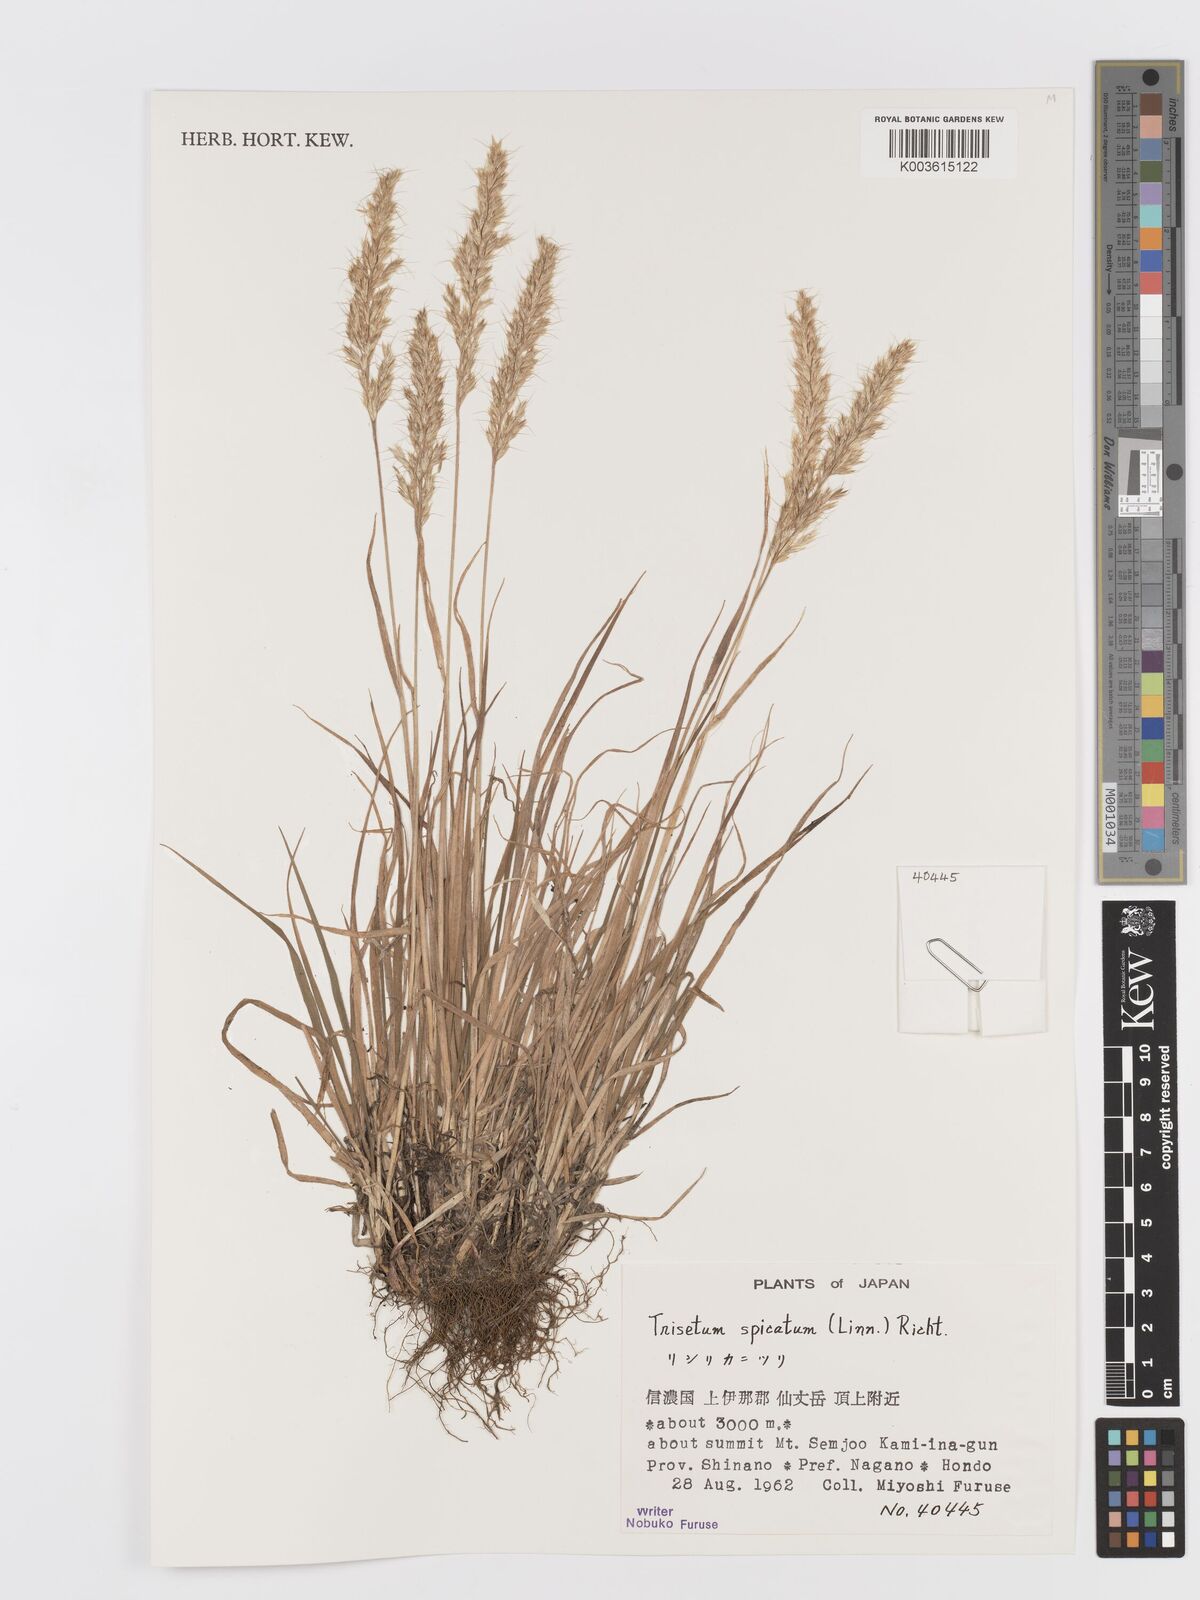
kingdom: Plantae
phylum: Tracheophyta
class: Liliopsida
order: Poales
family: Poaceae
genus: Koeleria
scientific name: Koeleria spicata
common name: Mountain trisetum
